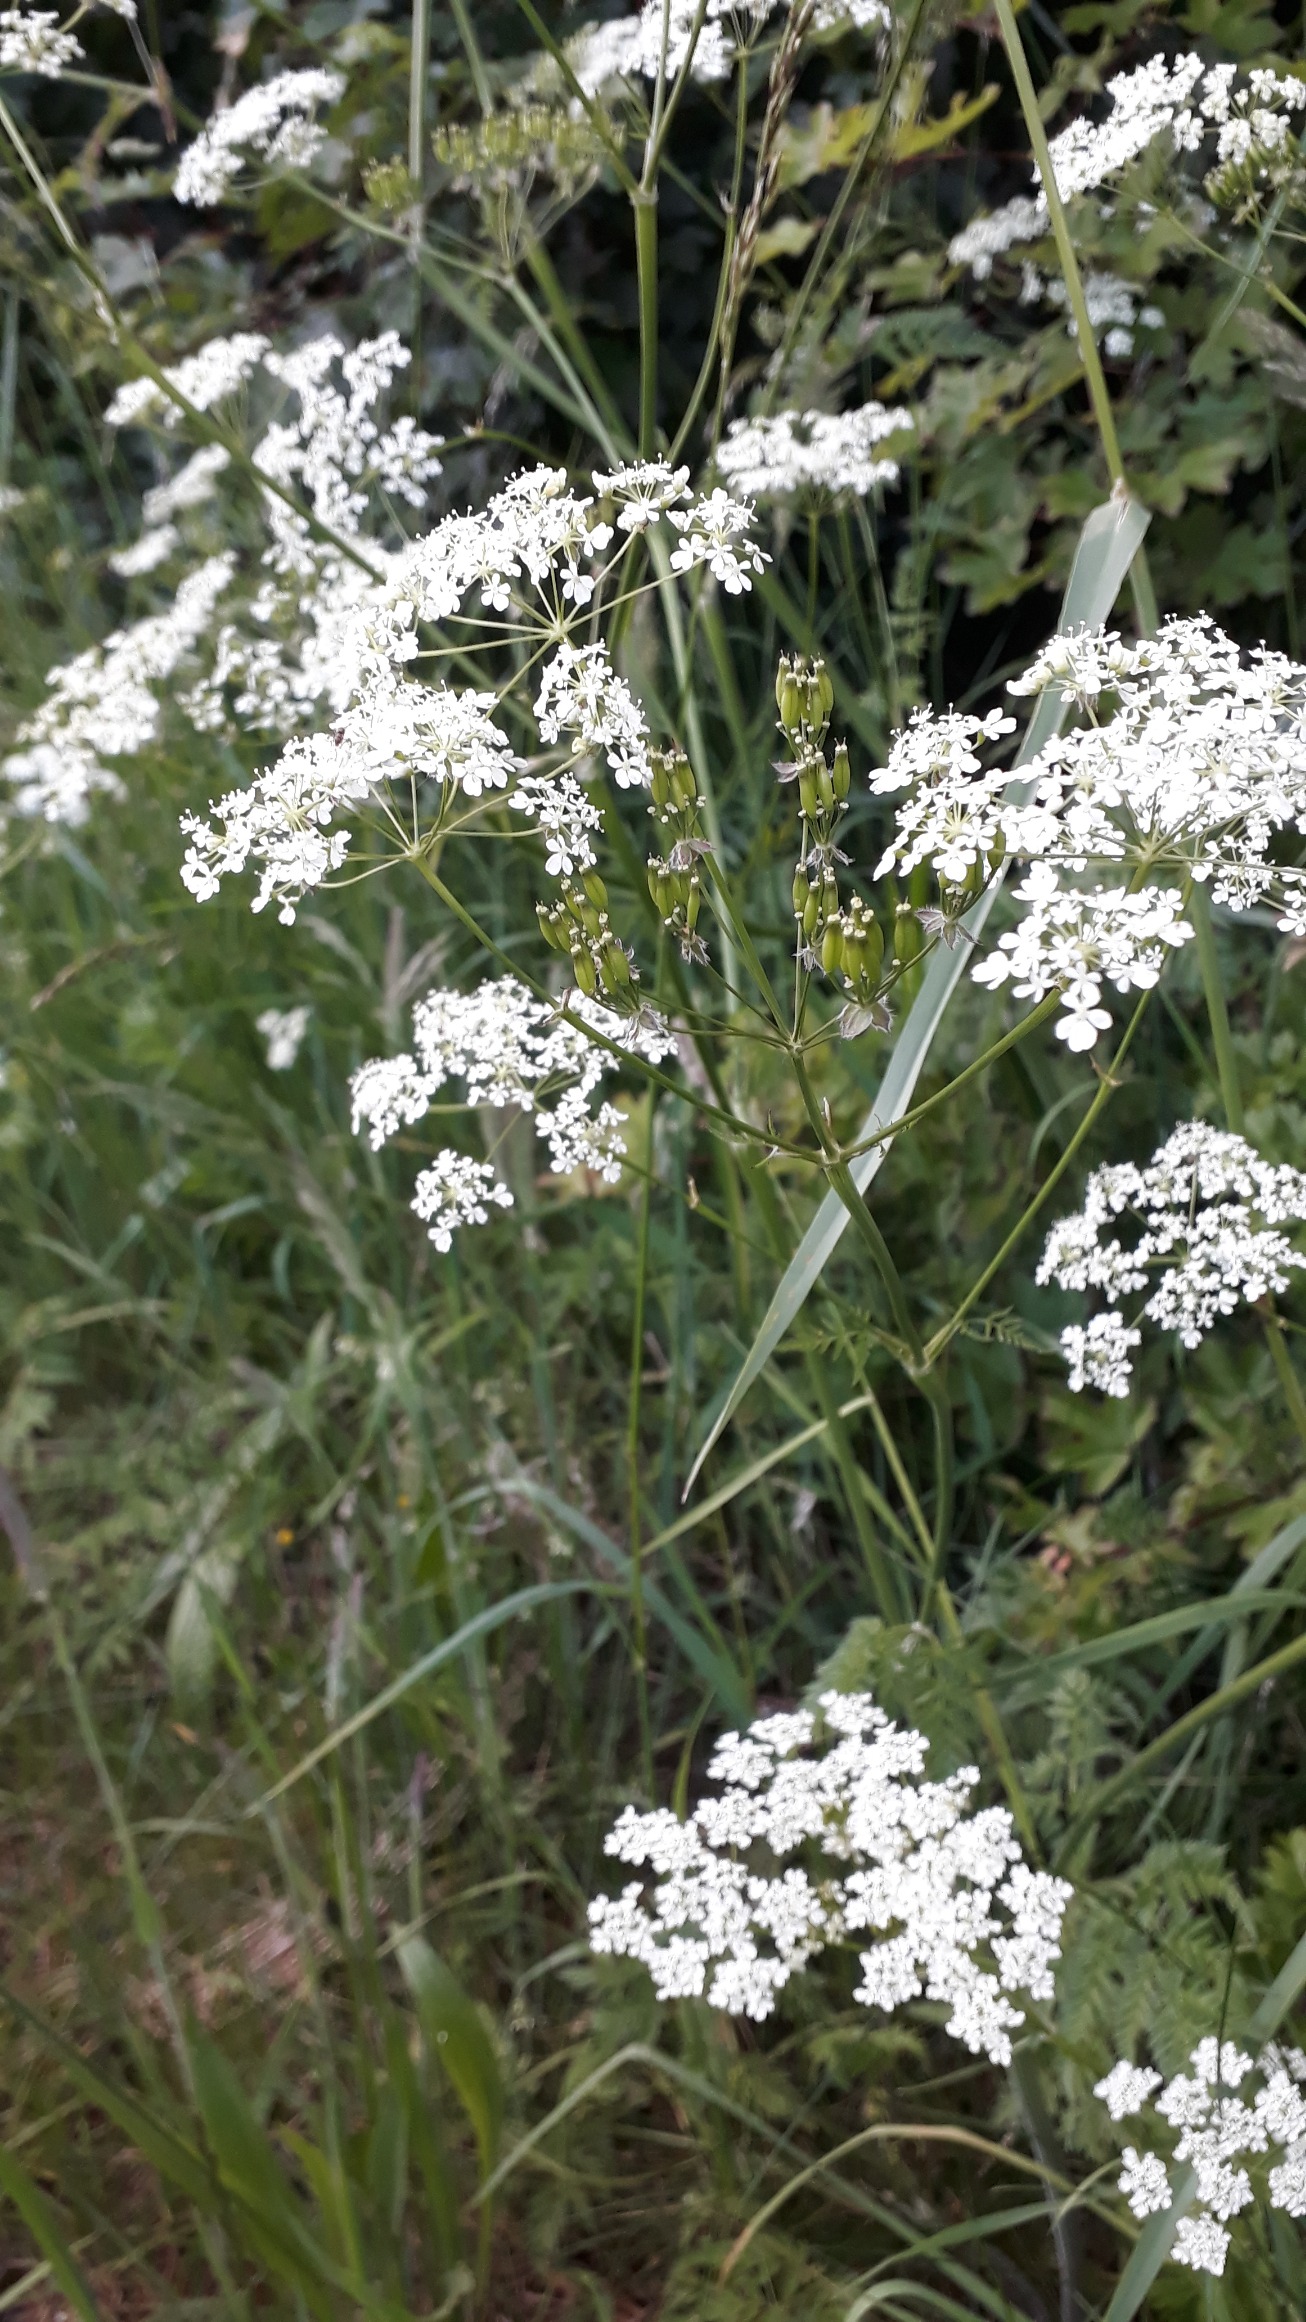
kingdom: Plantae
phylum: Tracheophyta
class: Magnoliopsida
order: Apiales
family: Apiaceae
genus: Anthriscus
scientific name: Anthriscus sylvestris
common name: Vild kørvel
